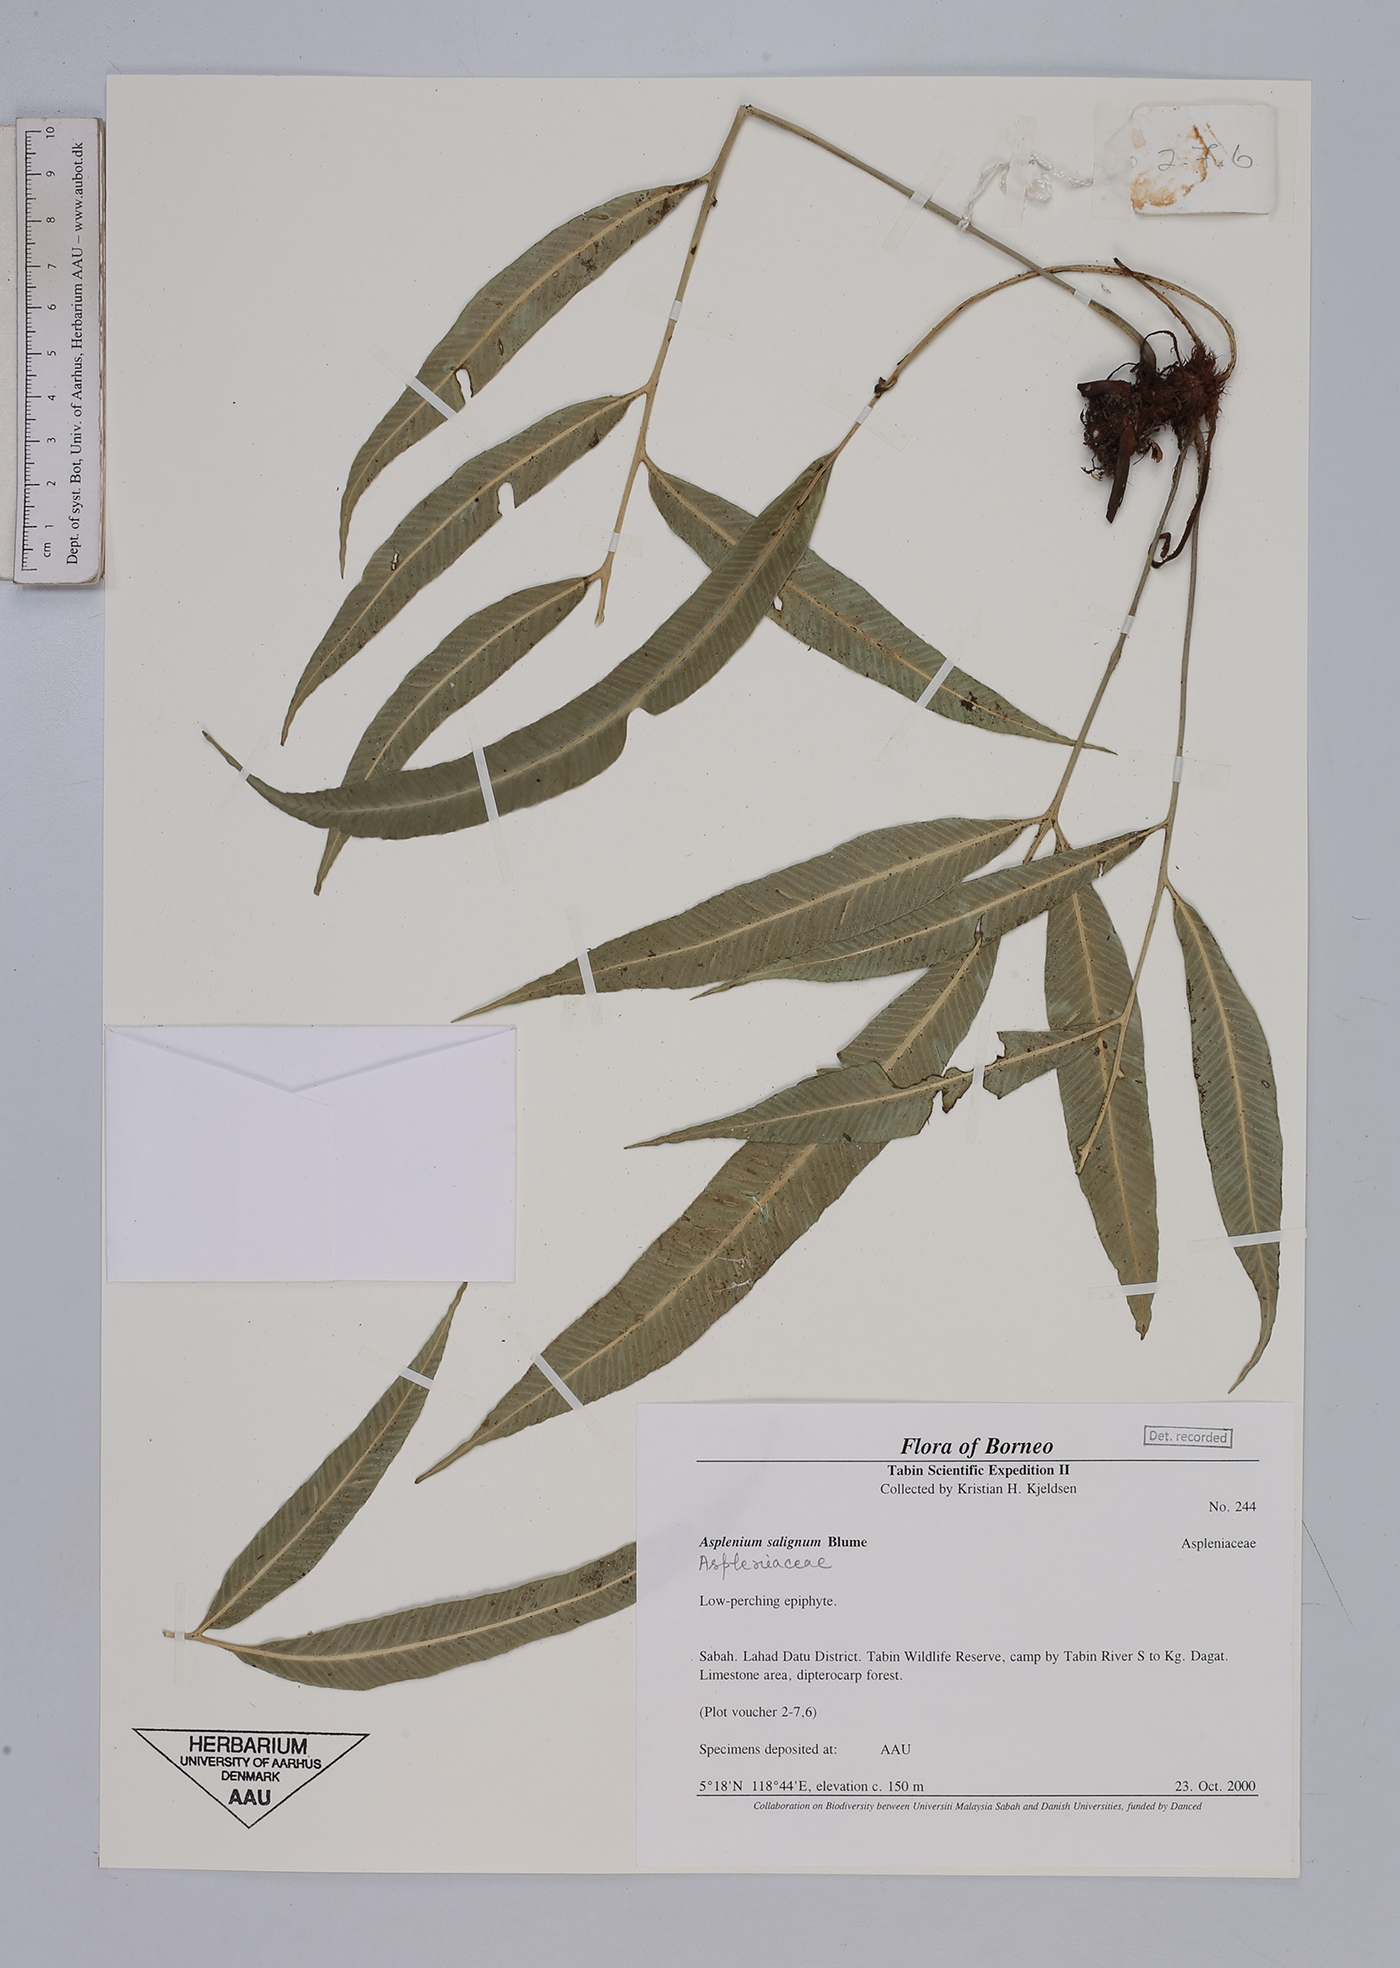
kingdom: Plantae
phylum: Tracheophyta
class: Polypodiopsida
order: Polypodiales
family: Aspleniaceae
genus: Asplenium
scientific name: Asplenium salignum
